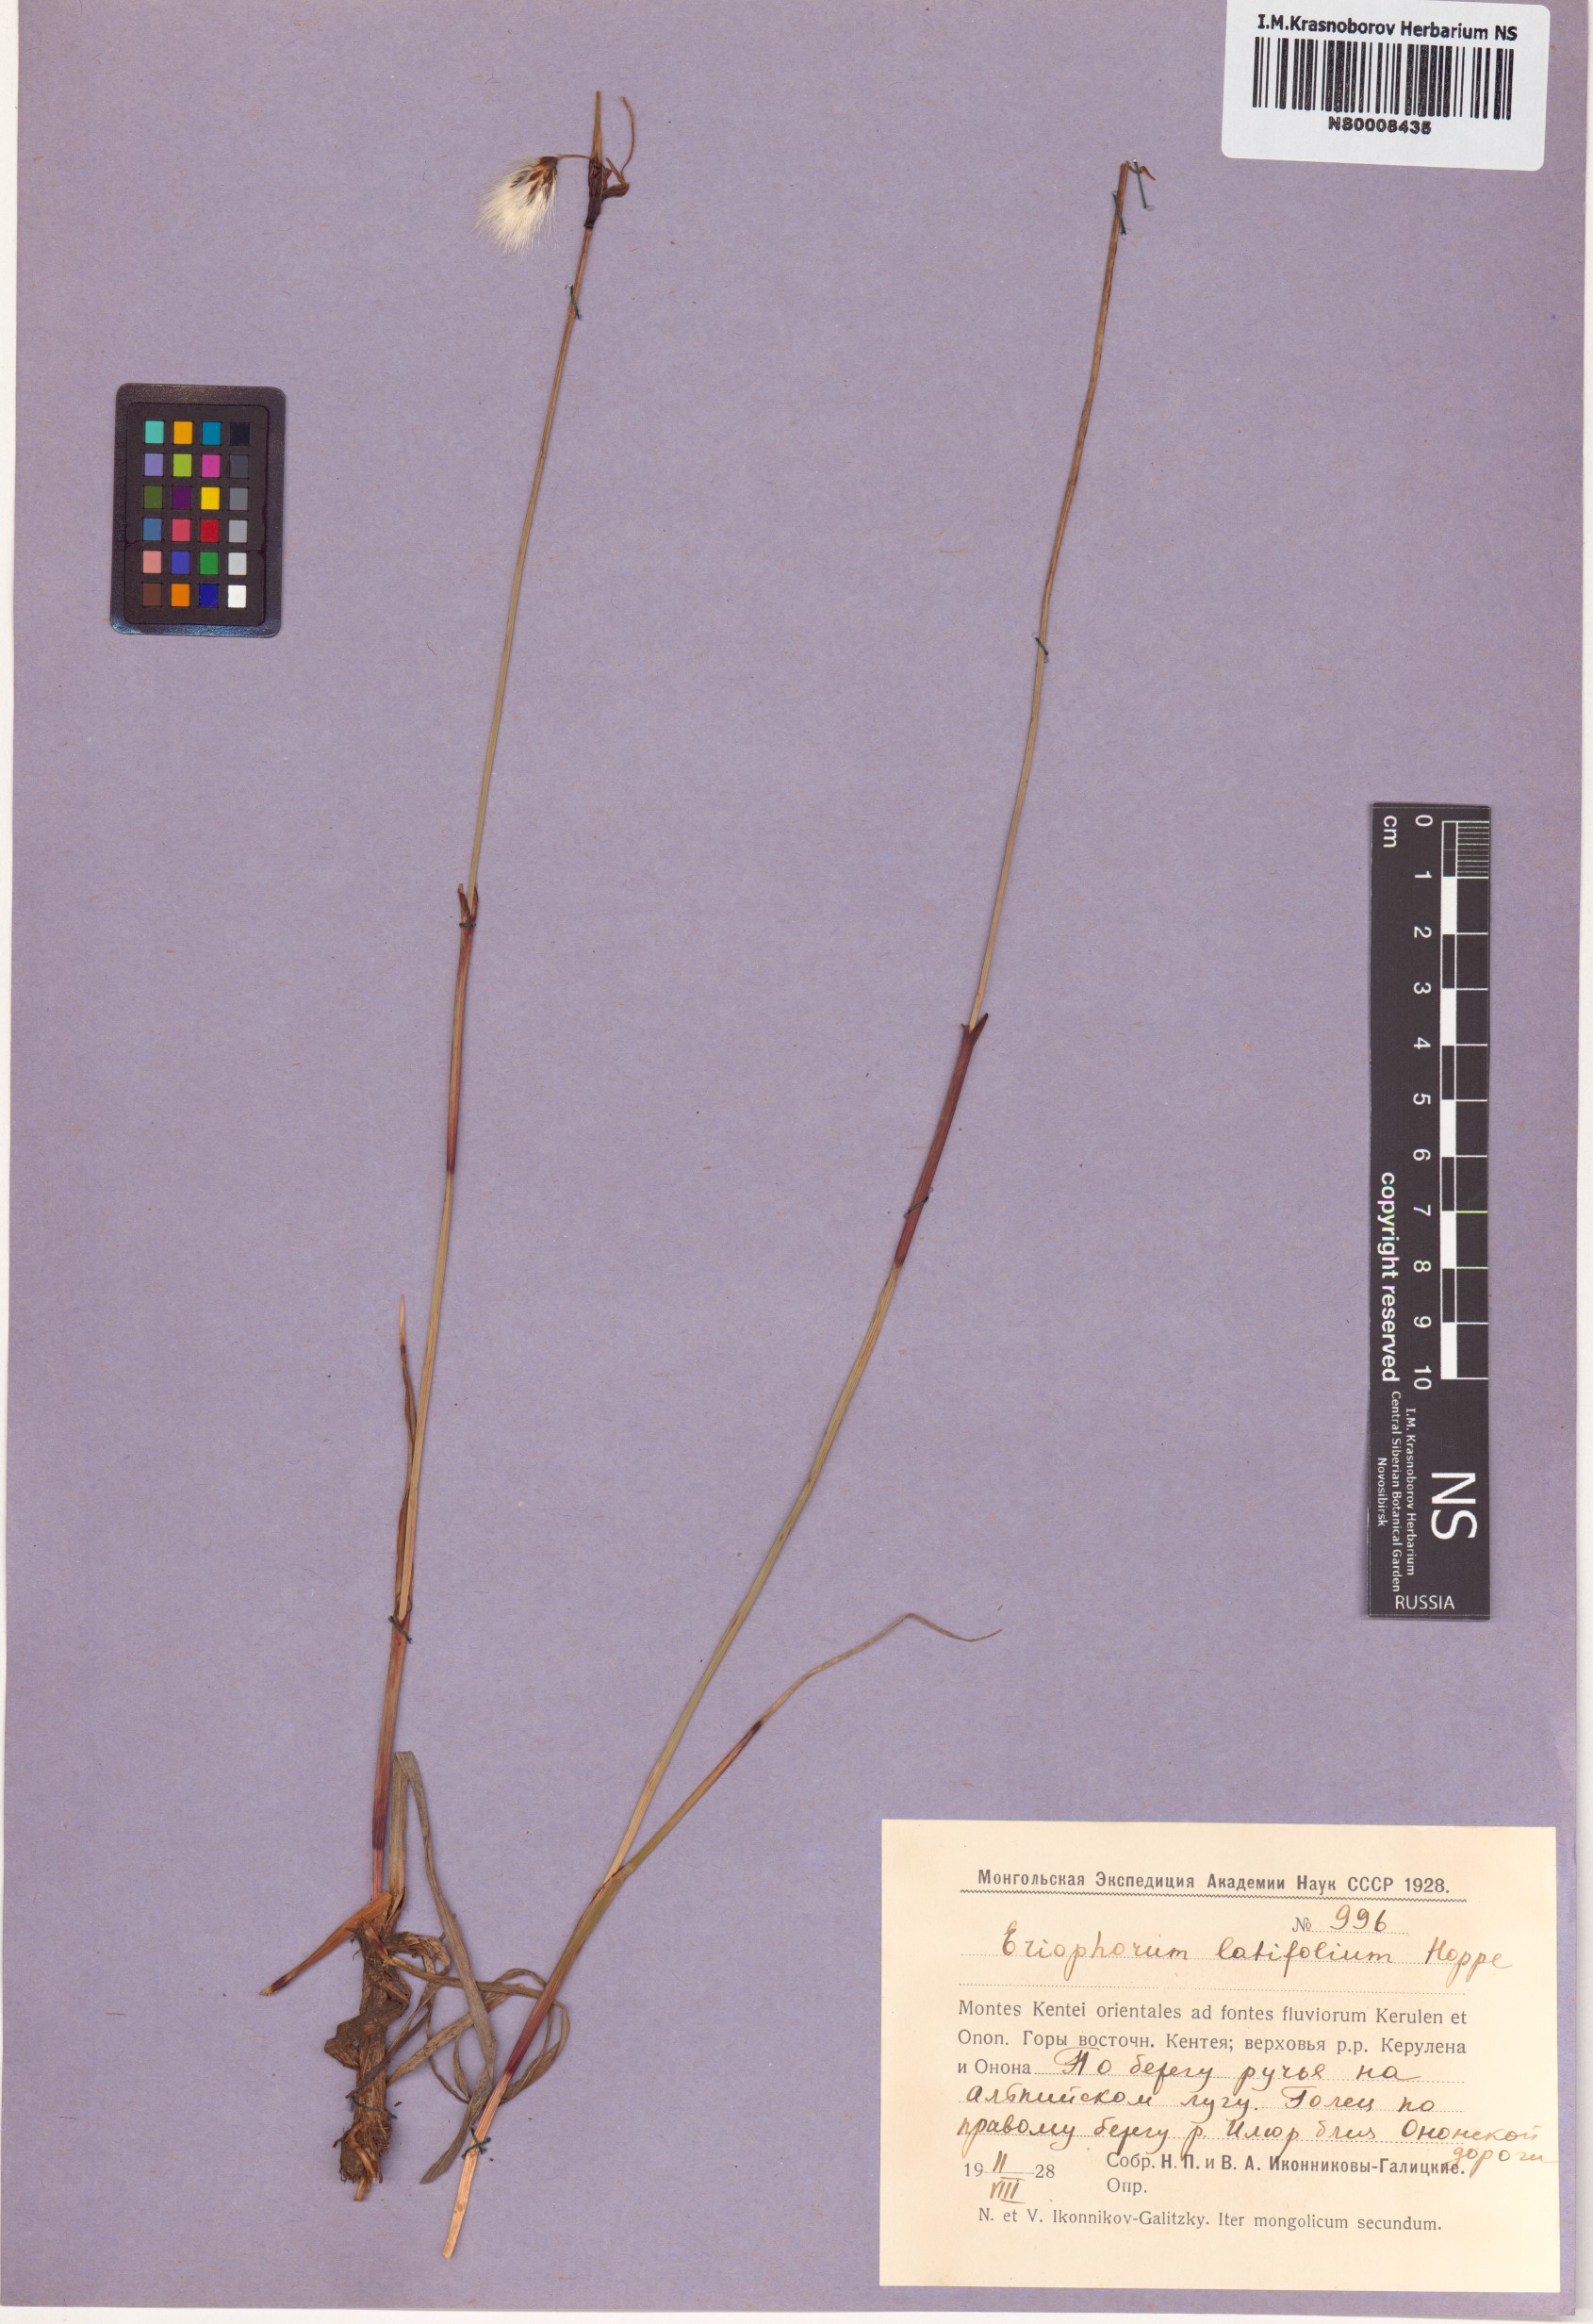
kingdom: Plantae
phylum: Tracheophyta
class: Liliopsida
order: Poales
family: Cyperaceae
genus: Eriophorum
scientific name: Eriophorum latifolium
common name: Broad-leaved cottongrass
